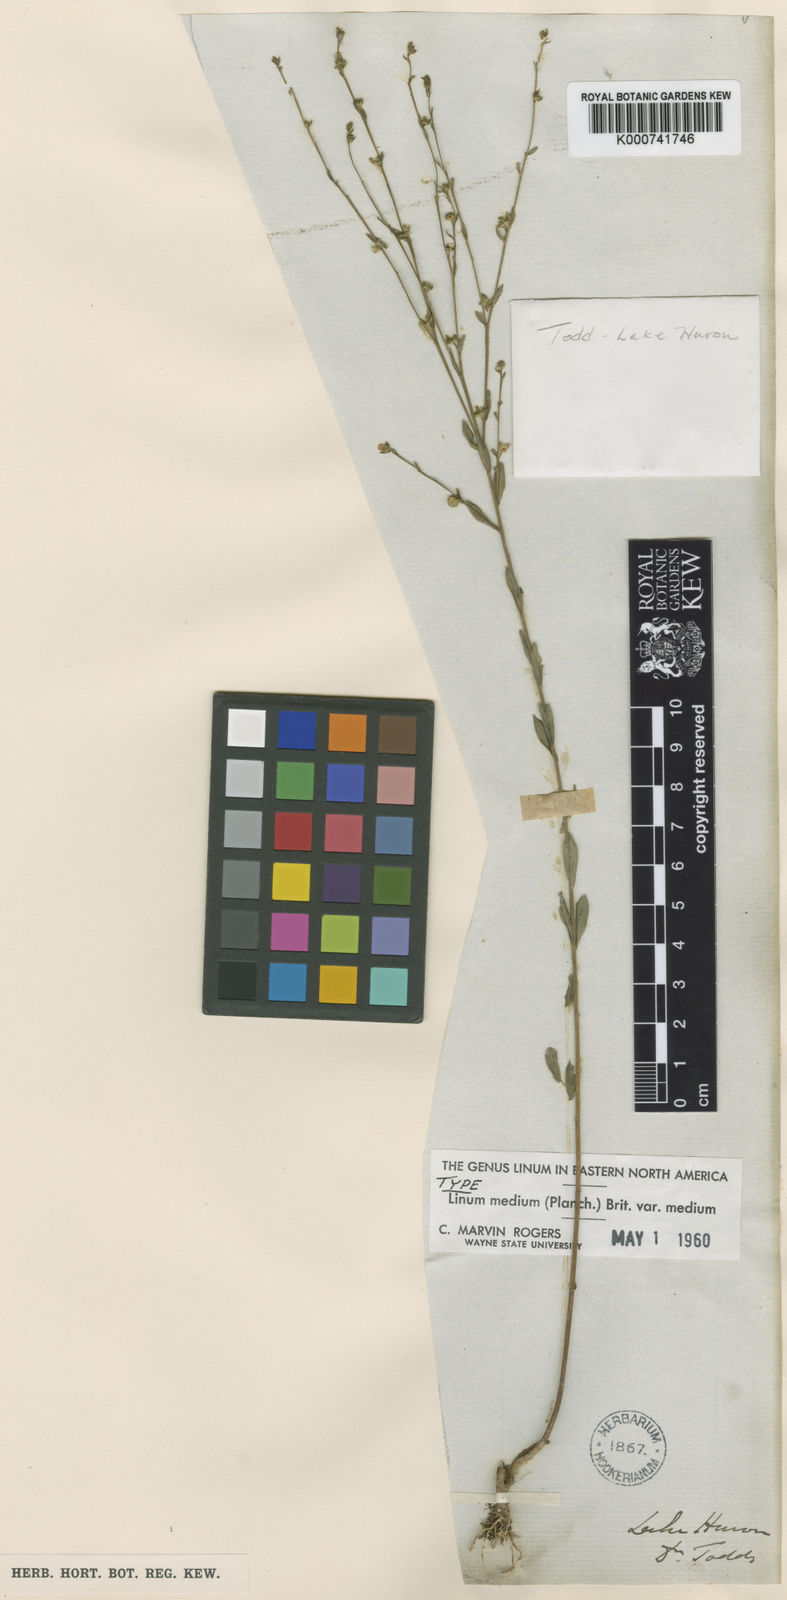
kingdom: Plantae
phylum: Tracheophyta
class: Magnoliopsida
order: Malpighiales
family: Linaceae
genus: Linum
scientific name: Linum medium
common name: Stiff yellow flax
